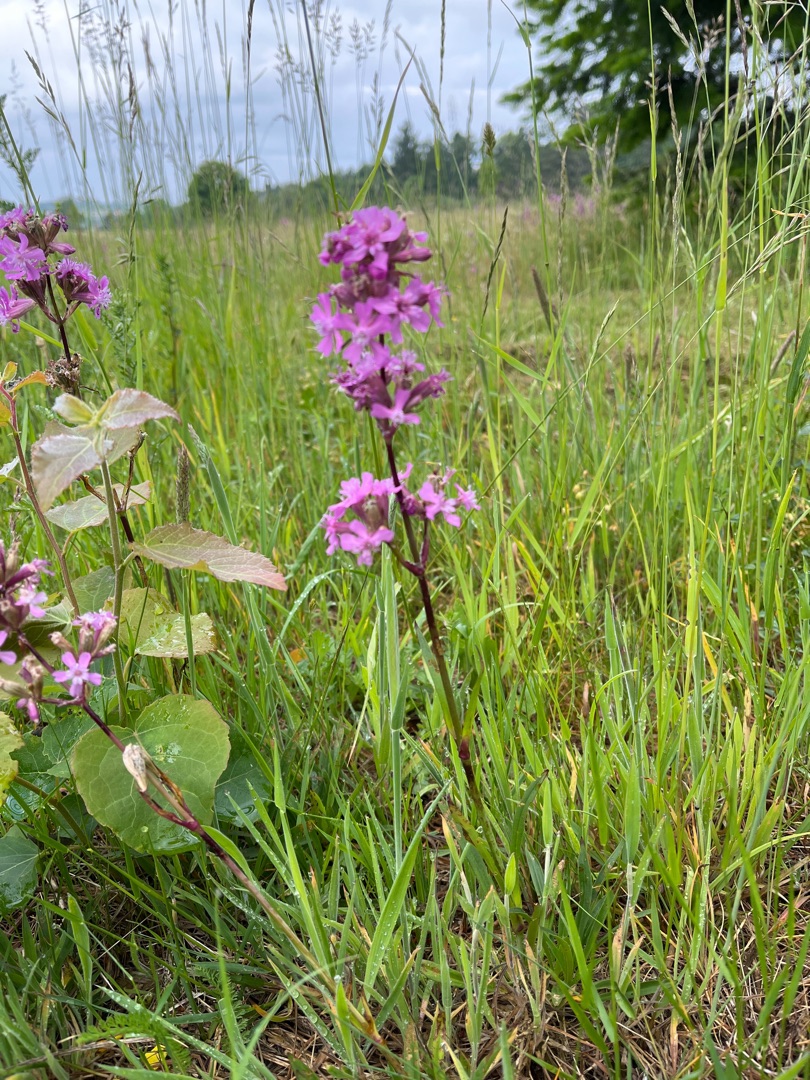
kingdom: Plantae
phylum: Tracheophyta
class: Magnoliopsida
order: Caryophyllales
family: Caryophyllaceae
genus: Viscaria
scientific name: Viscaria vulgaris
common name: Tjærenellike
